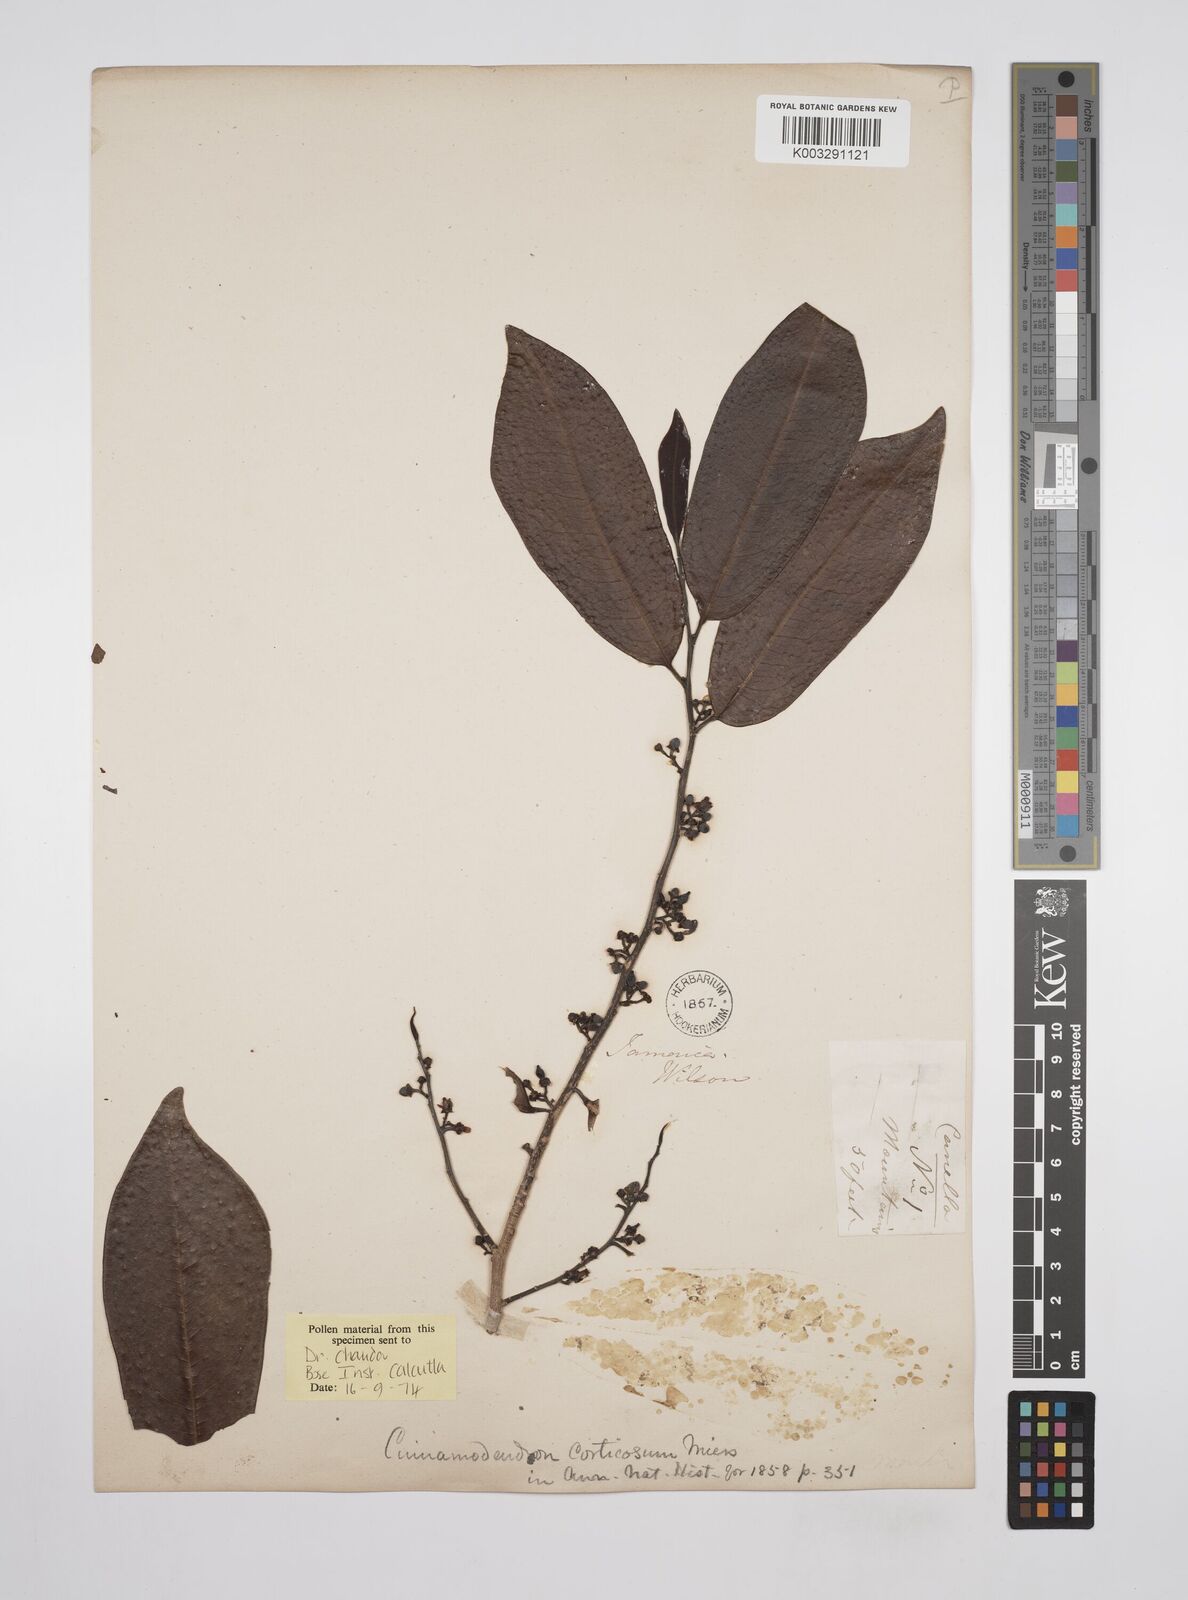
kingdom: Plantae
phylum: Tracheophyta
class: Magnoliopsida
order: Canellales
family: Canellaceae
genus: Cinnamodendron
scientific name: Cinnamodendron corticosum
